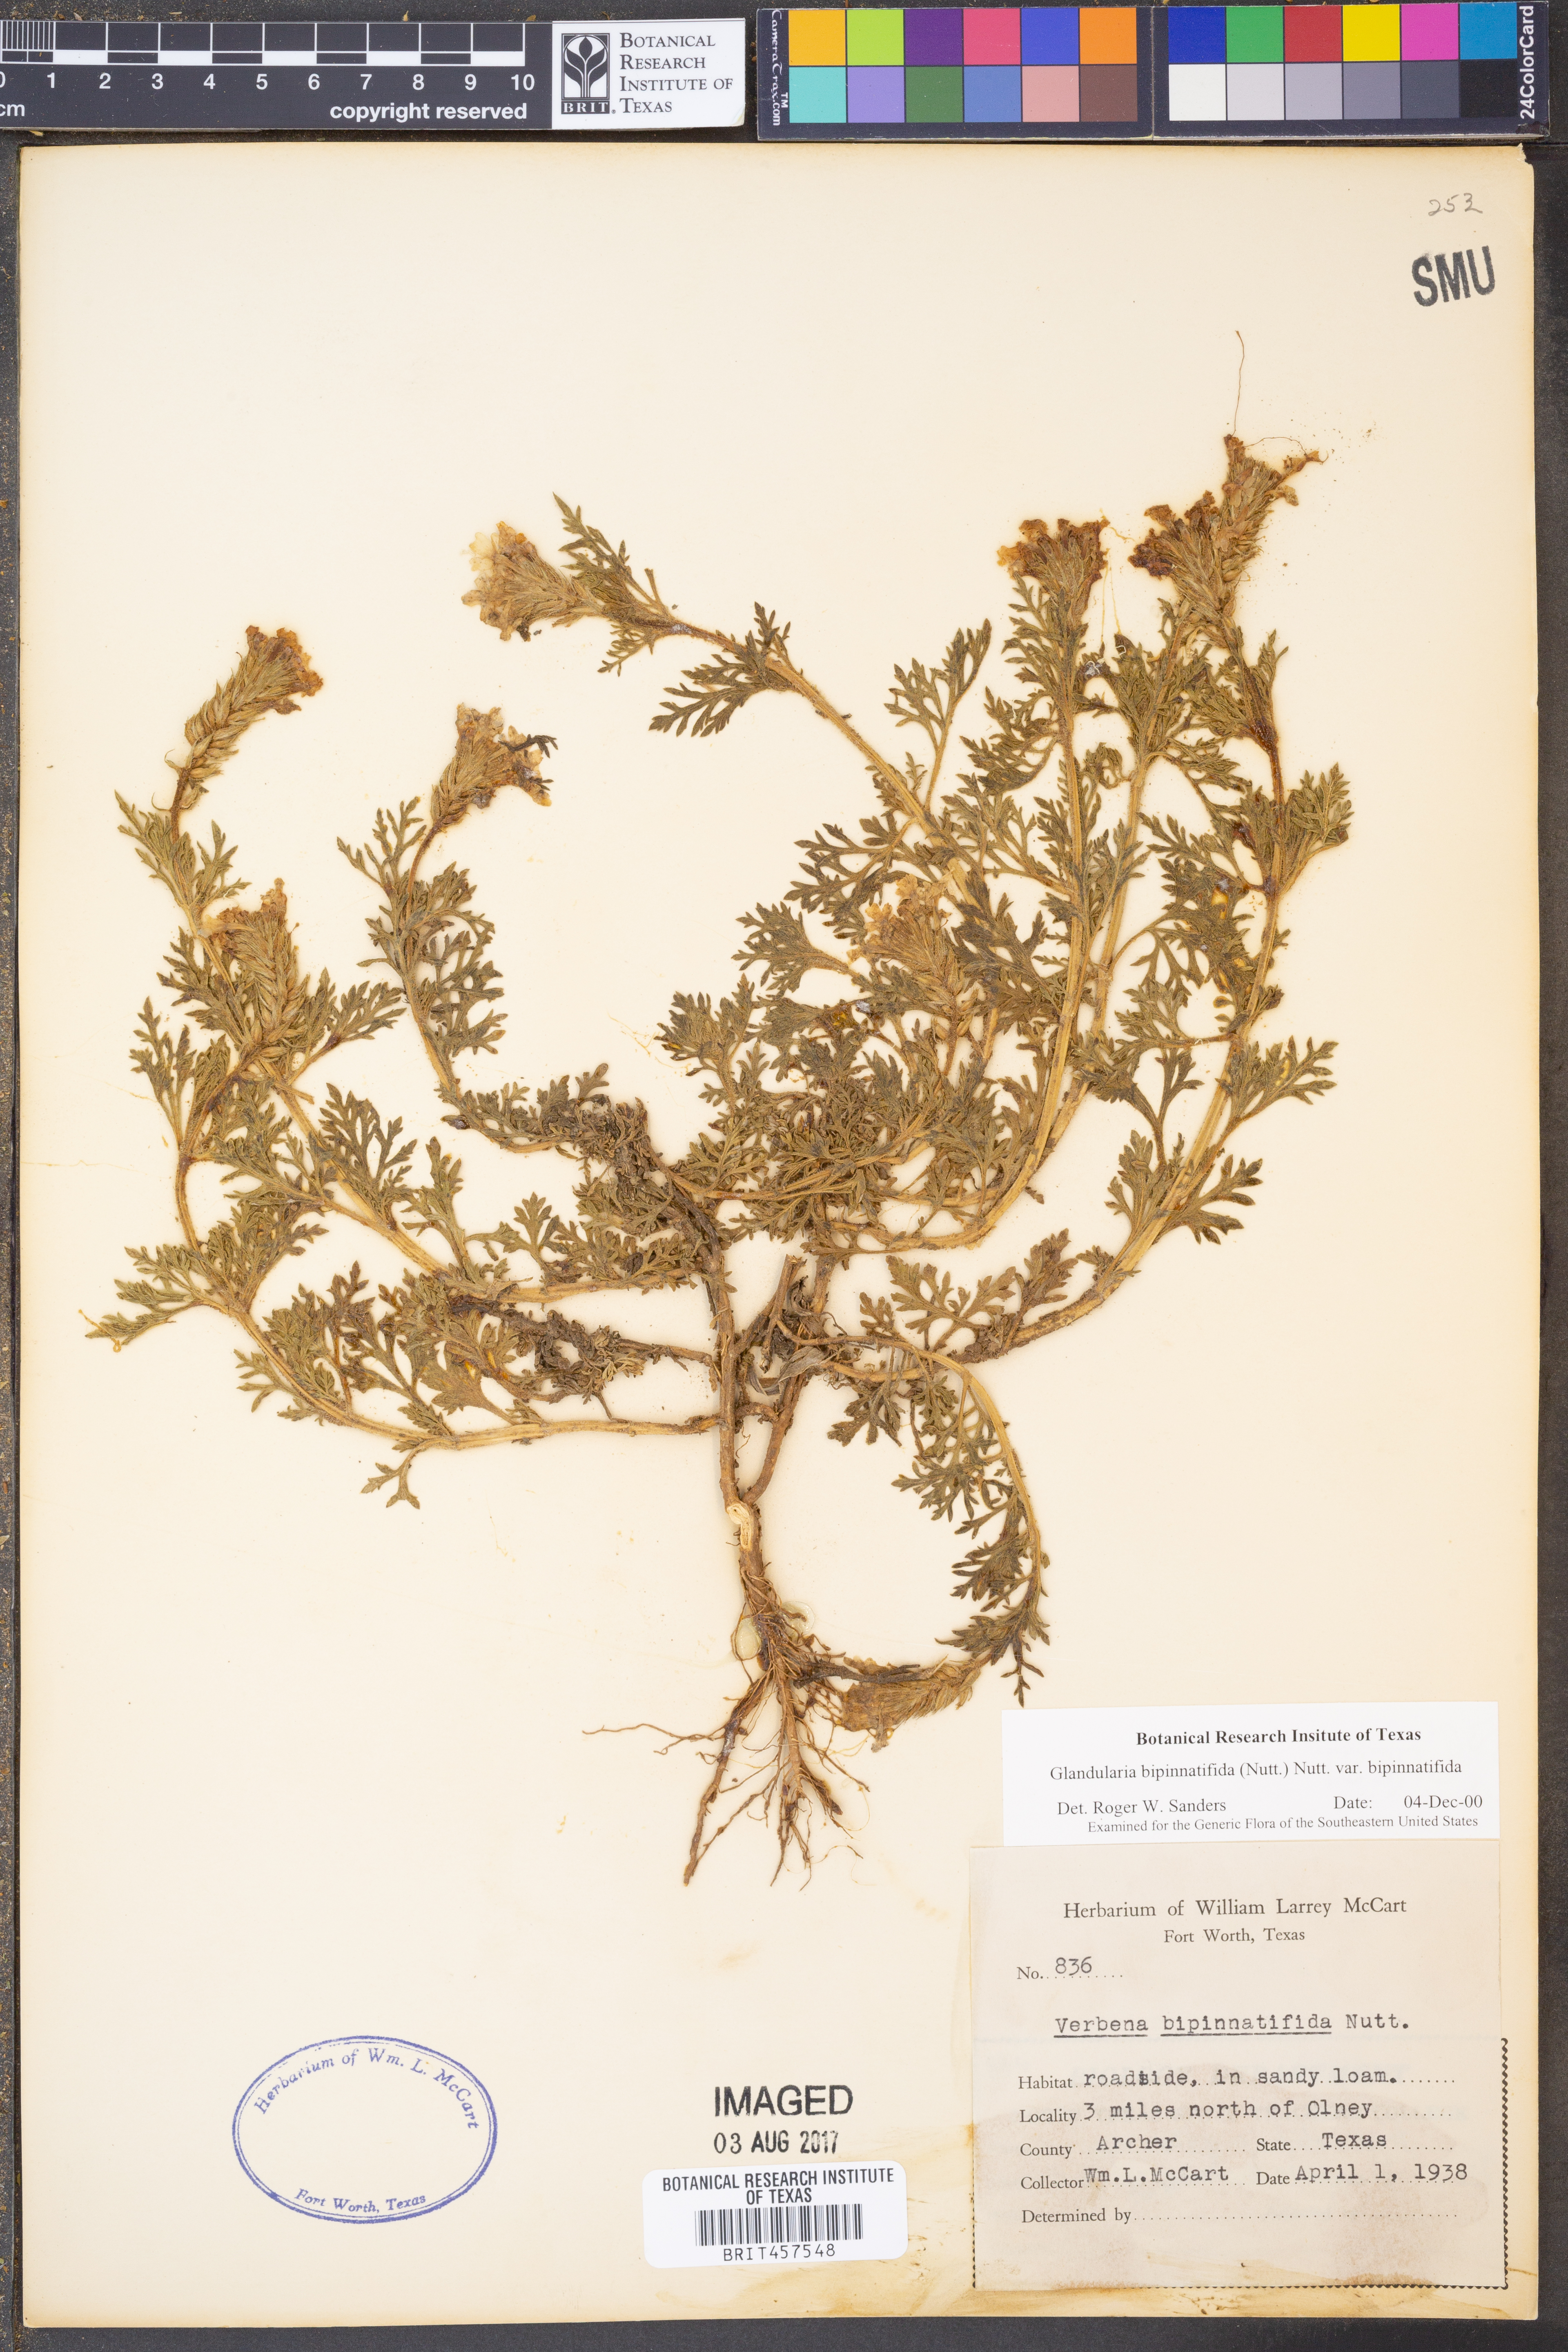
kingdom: Plantae
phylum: Tracheophyta
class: Magnoliopsida
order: Lamiales
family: Verbenaceae
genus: Verbena
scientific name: Verbena bipinnatifida
